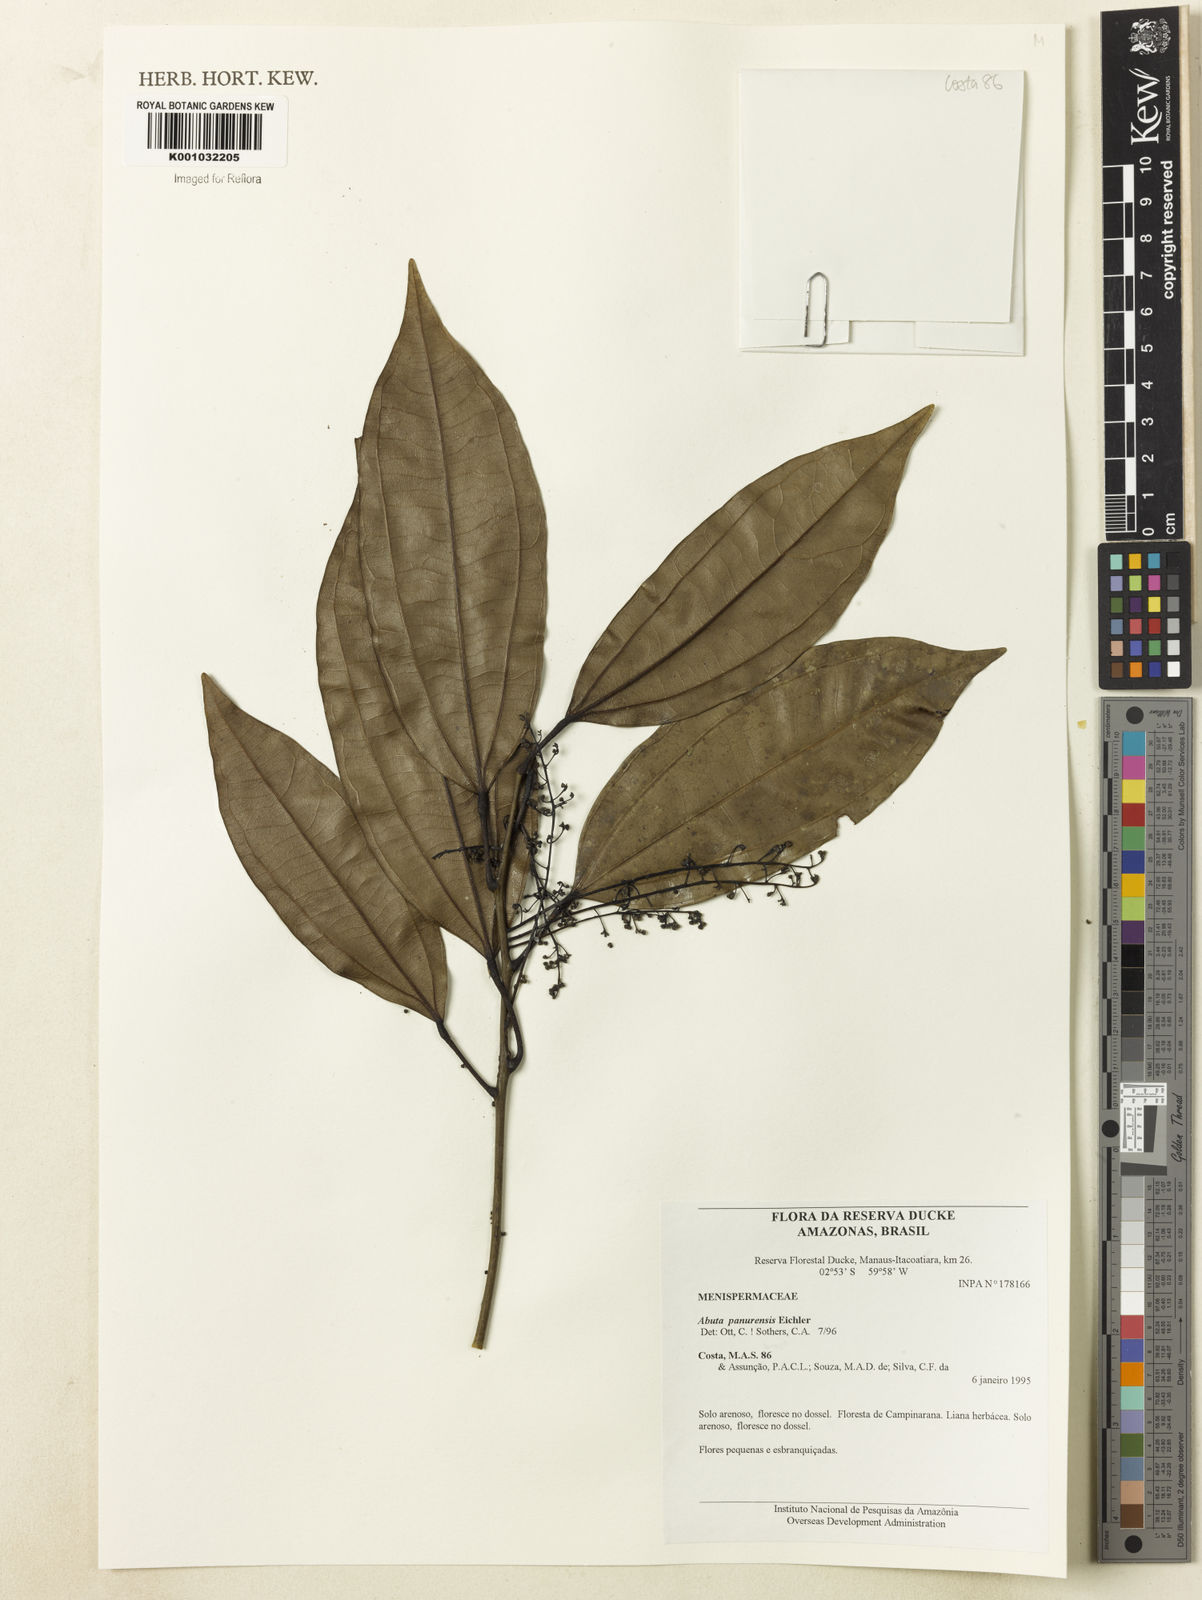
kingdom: Plantae
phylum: Tracheophyta
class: Magnoliopsida
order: Ranunculales
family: Menispermaceae
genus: Abuta
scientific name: Abuta panurensis
